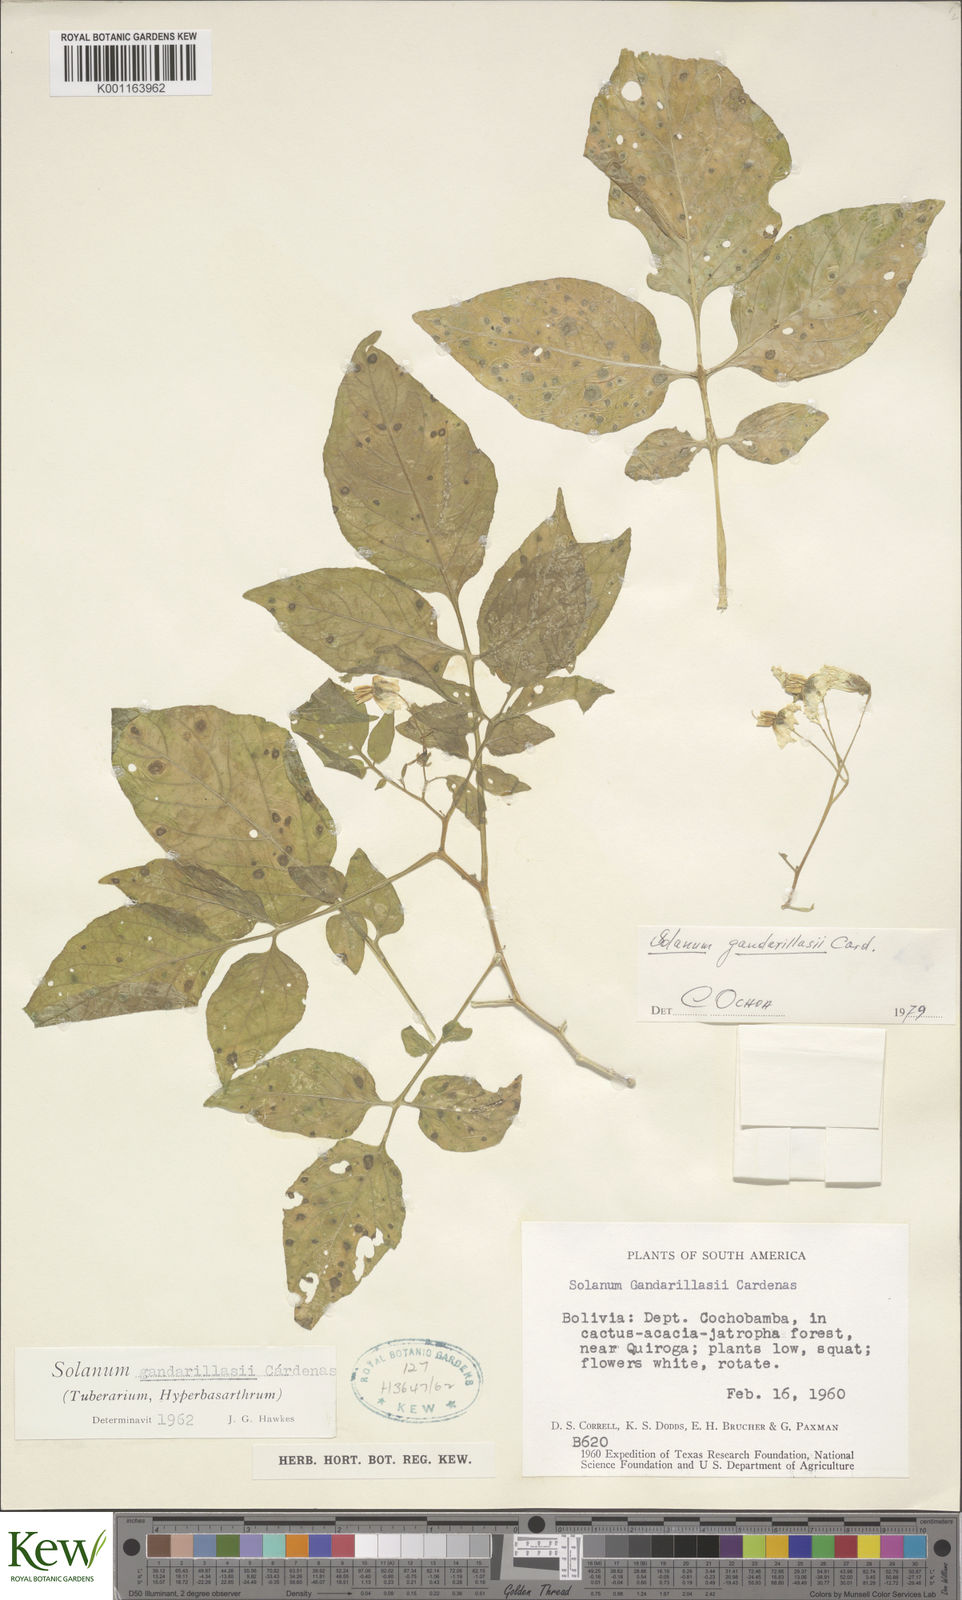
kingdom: Plantae
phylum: Tracheophyta
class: Magnoliopsida
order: Solanales
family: Solanaceae
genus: Solanum
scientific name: Solanum
